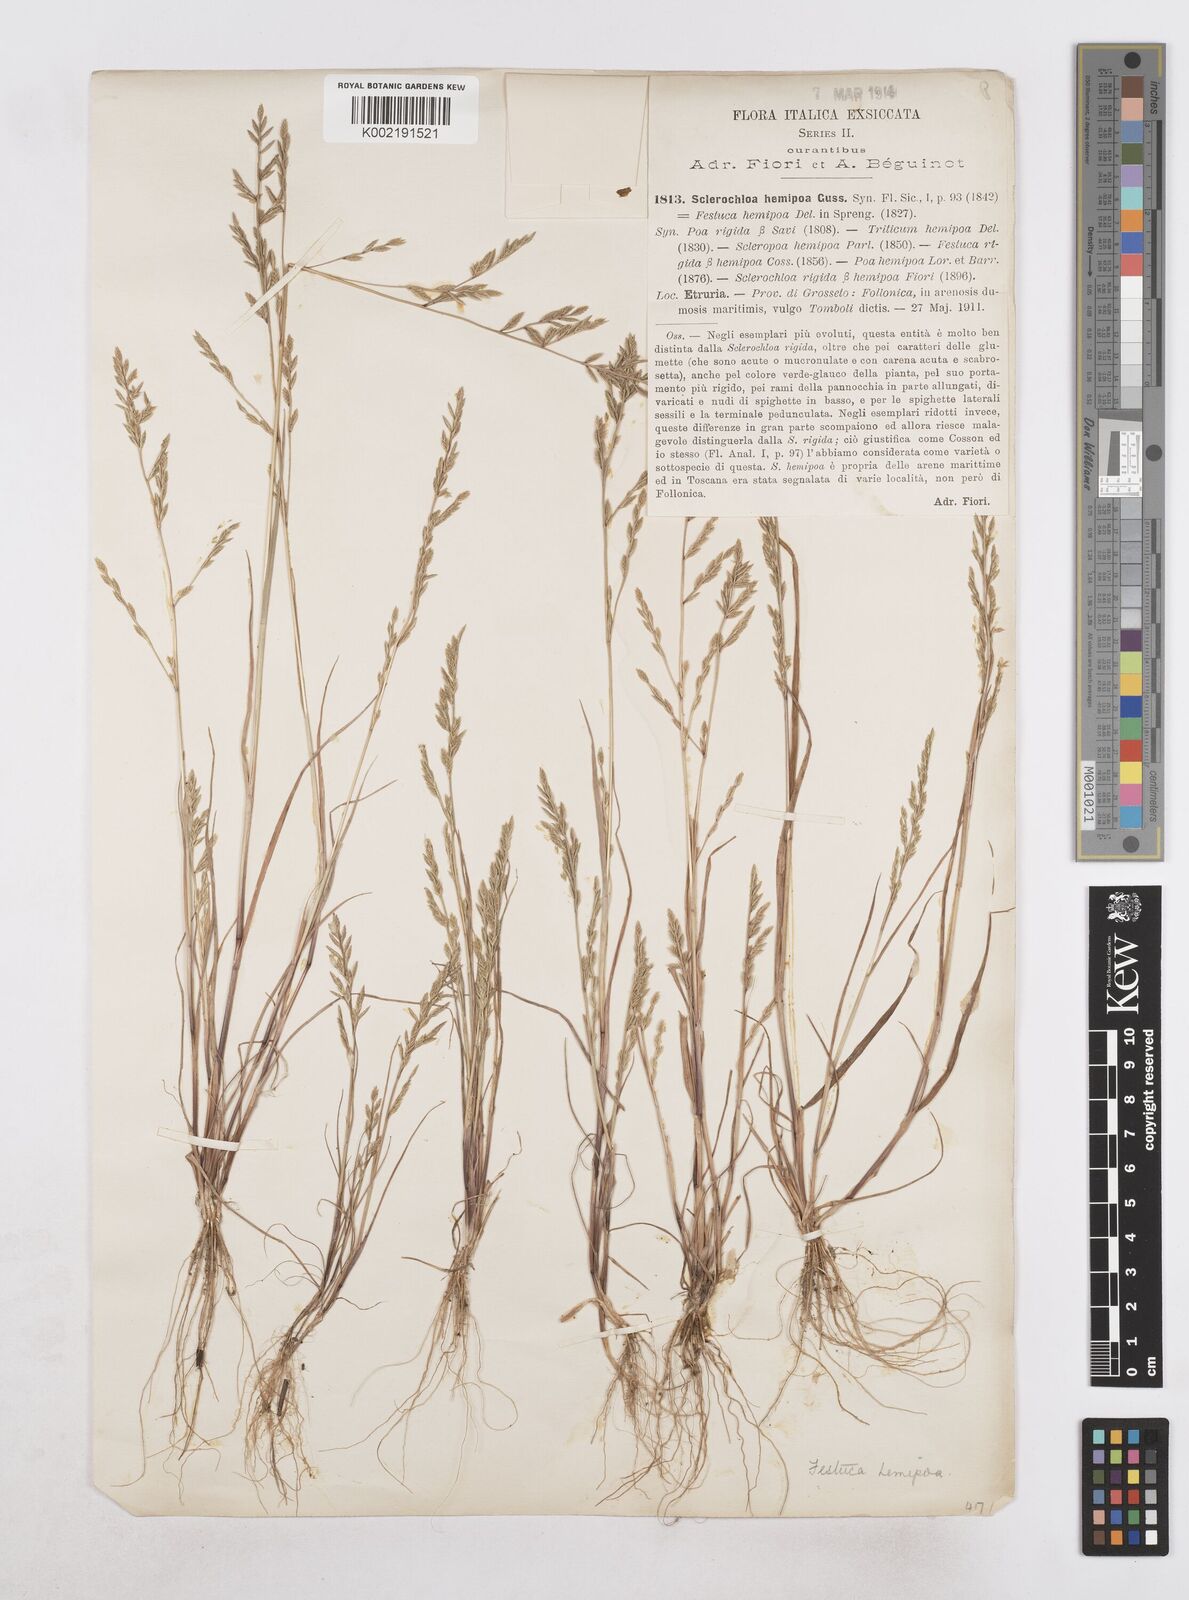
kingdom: Plantae
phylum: Tracheophyta
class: Liliopsida
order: Poales
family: Poaceae
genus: Catapodium
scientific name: Catapodium hemipoa
